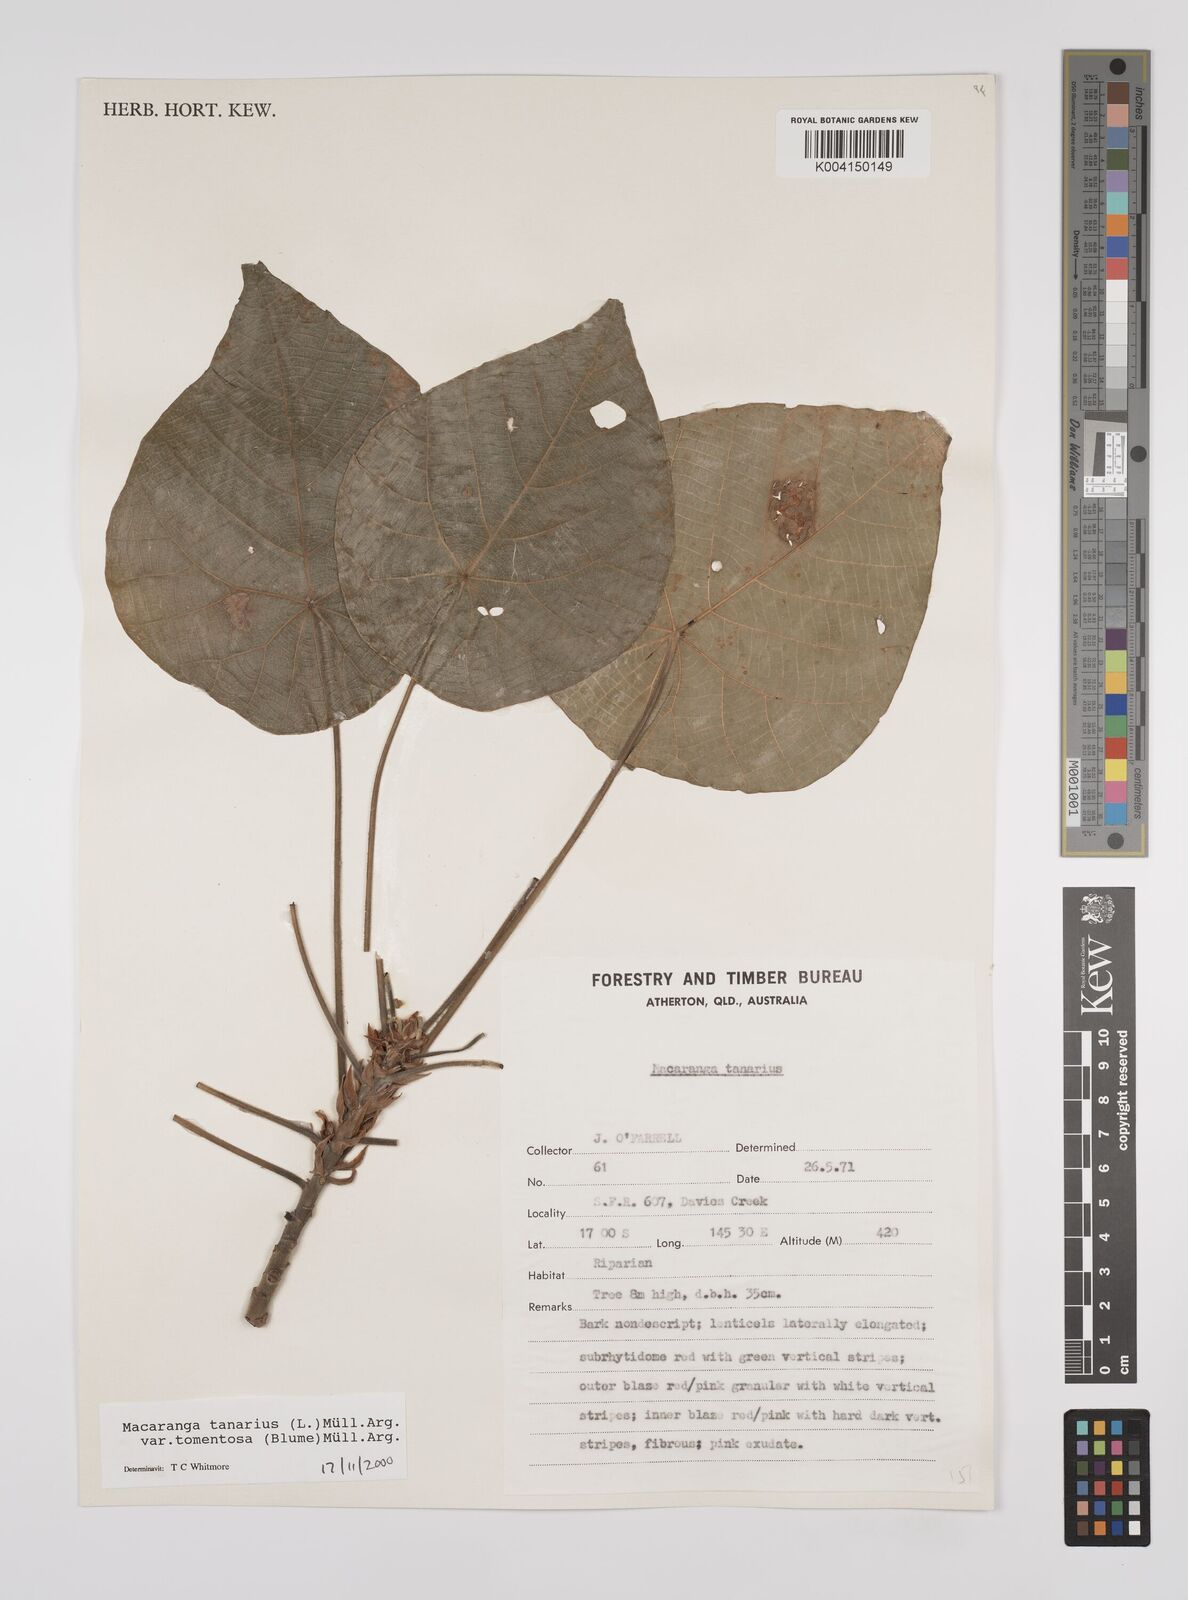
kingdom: Plantae
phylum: Tracheophyta
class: Magnoliopsida
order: Malpighiales
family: Euphorbiaceae
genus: Macaranga
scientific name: Macaranga tanarius
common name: Parasol leaf tree
